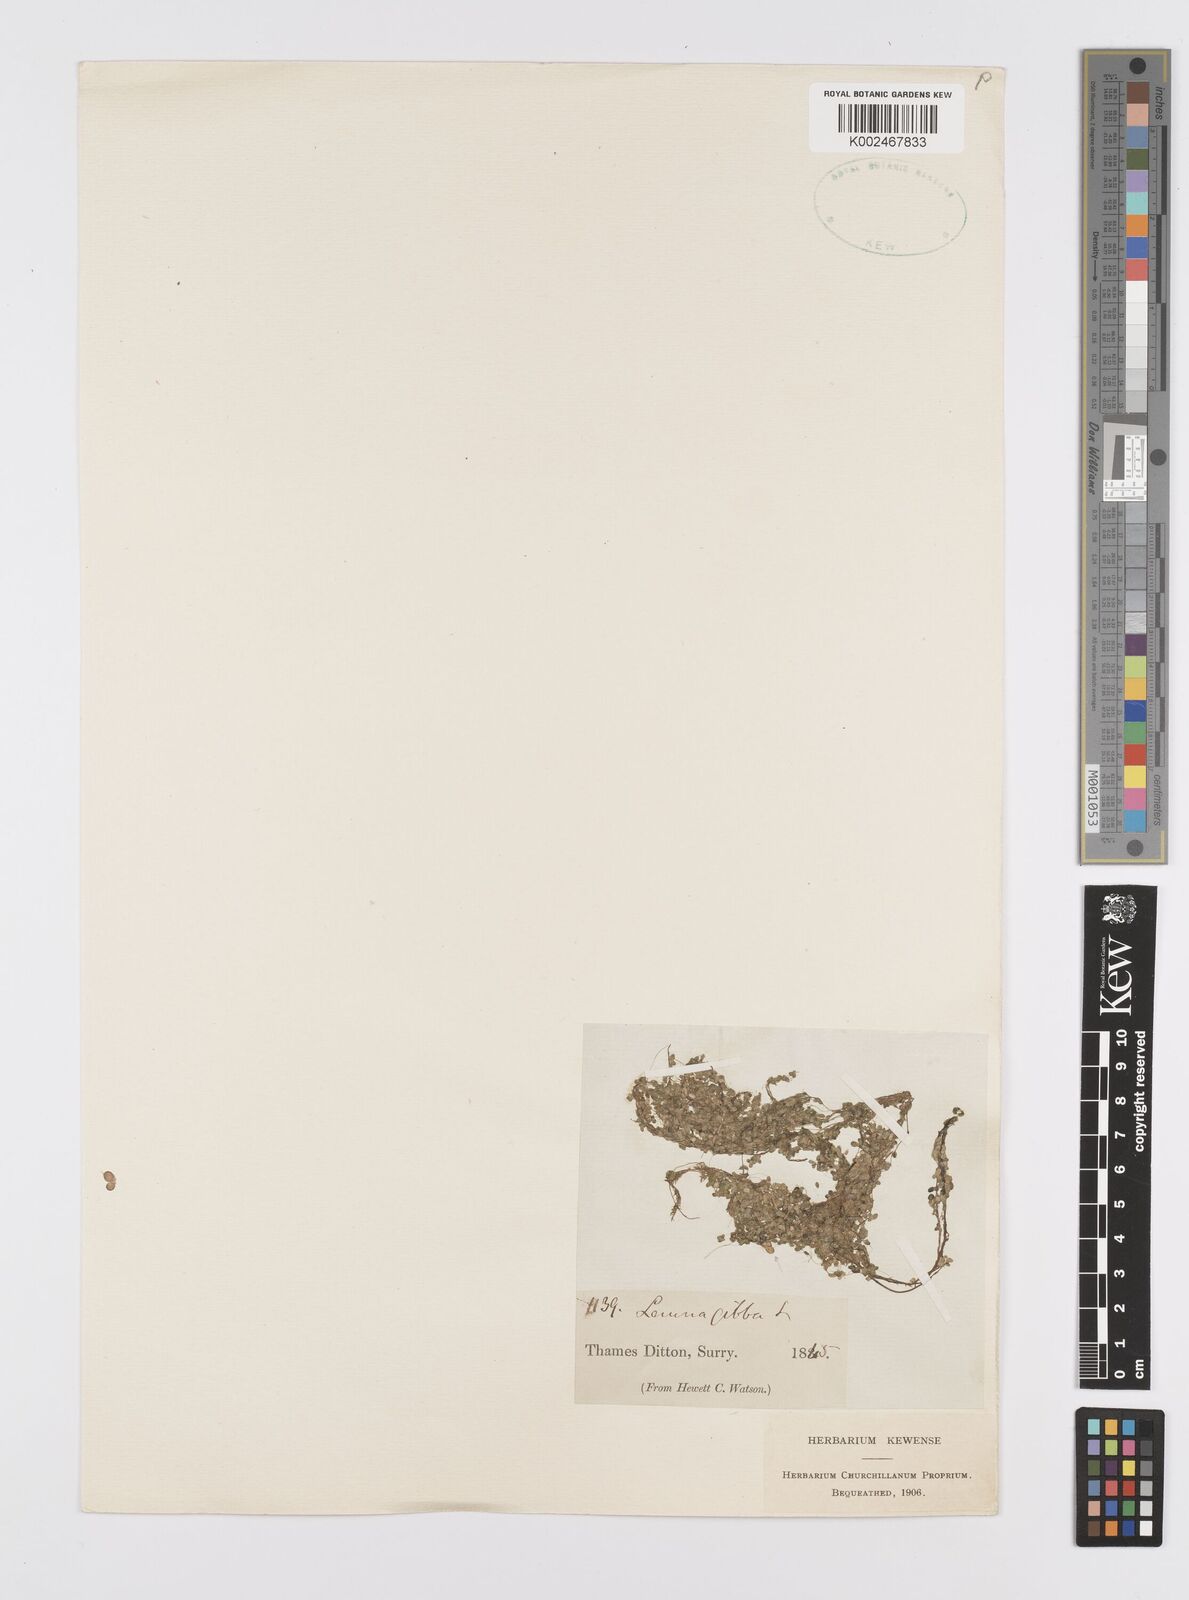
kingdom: Plantae
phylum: Tracheophyta
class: Liliopsida
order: Alismatales
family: Araceae
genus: Lemna
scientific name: Lemna gibba
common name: Fat duckweed
